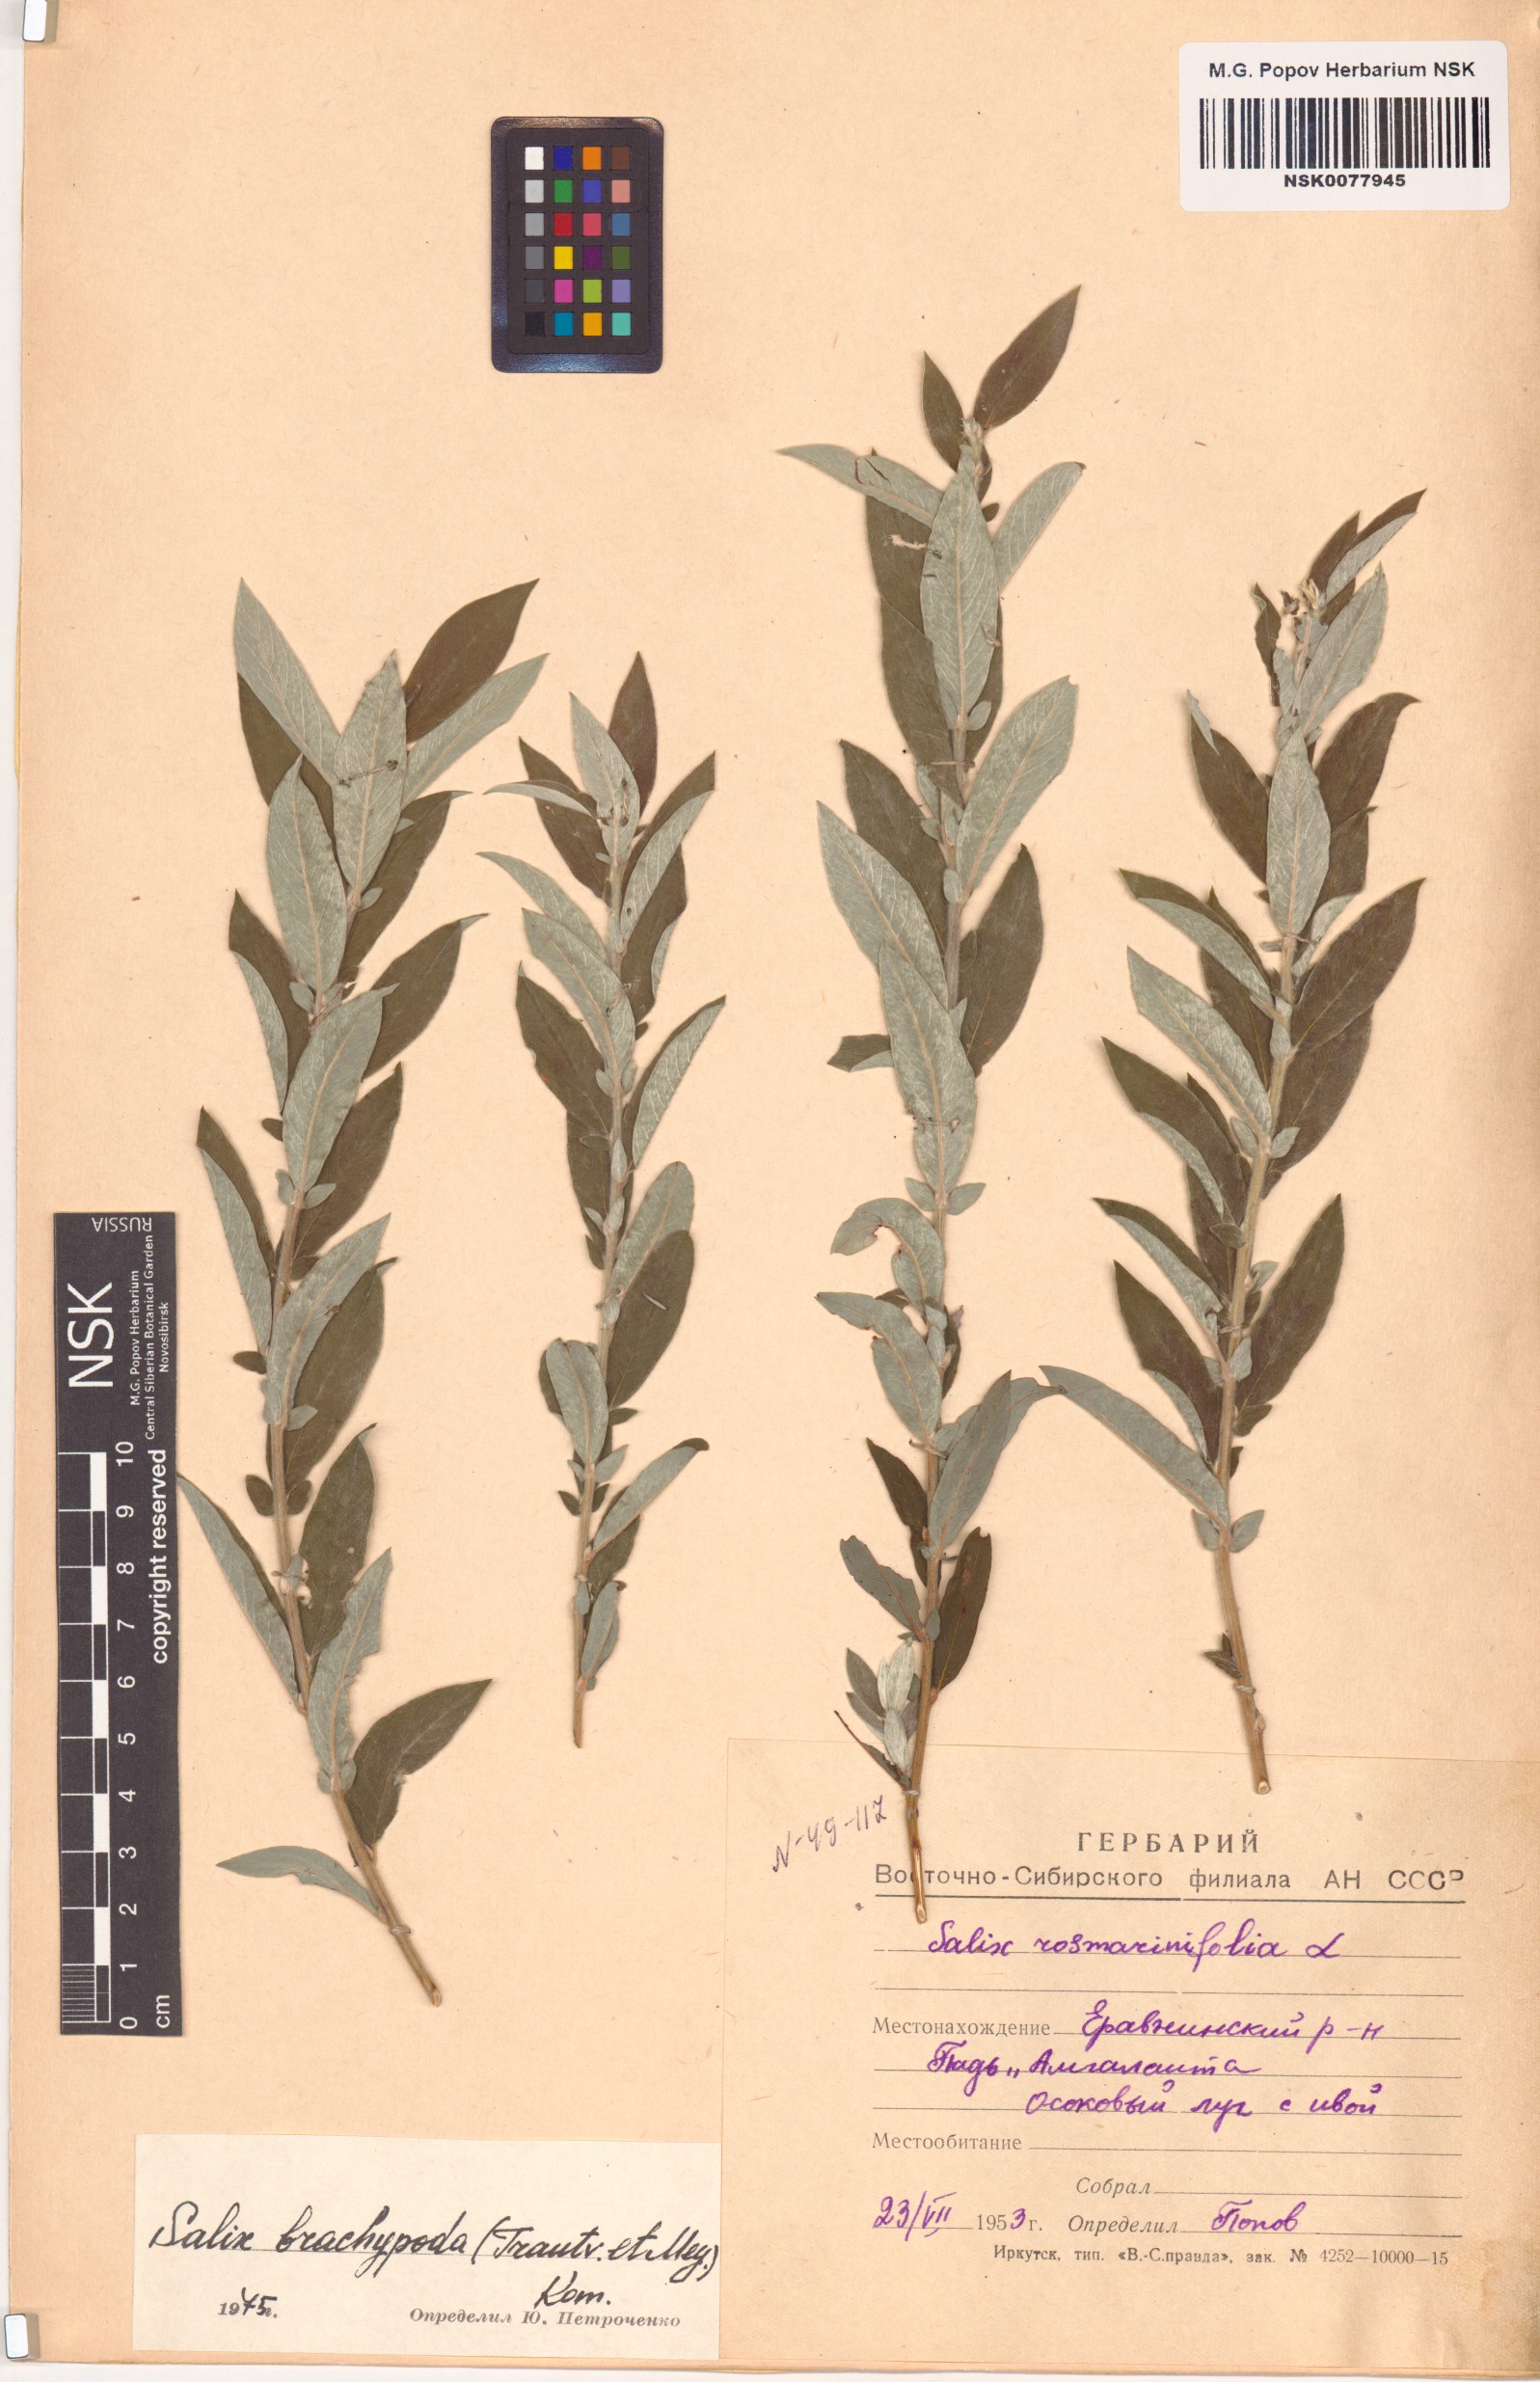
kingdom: Plantae
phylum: Tracheophyta
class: Magnoliopsida
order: Malpighiales
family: Salicaceae
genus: Salix
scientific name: Salix brachypoda
